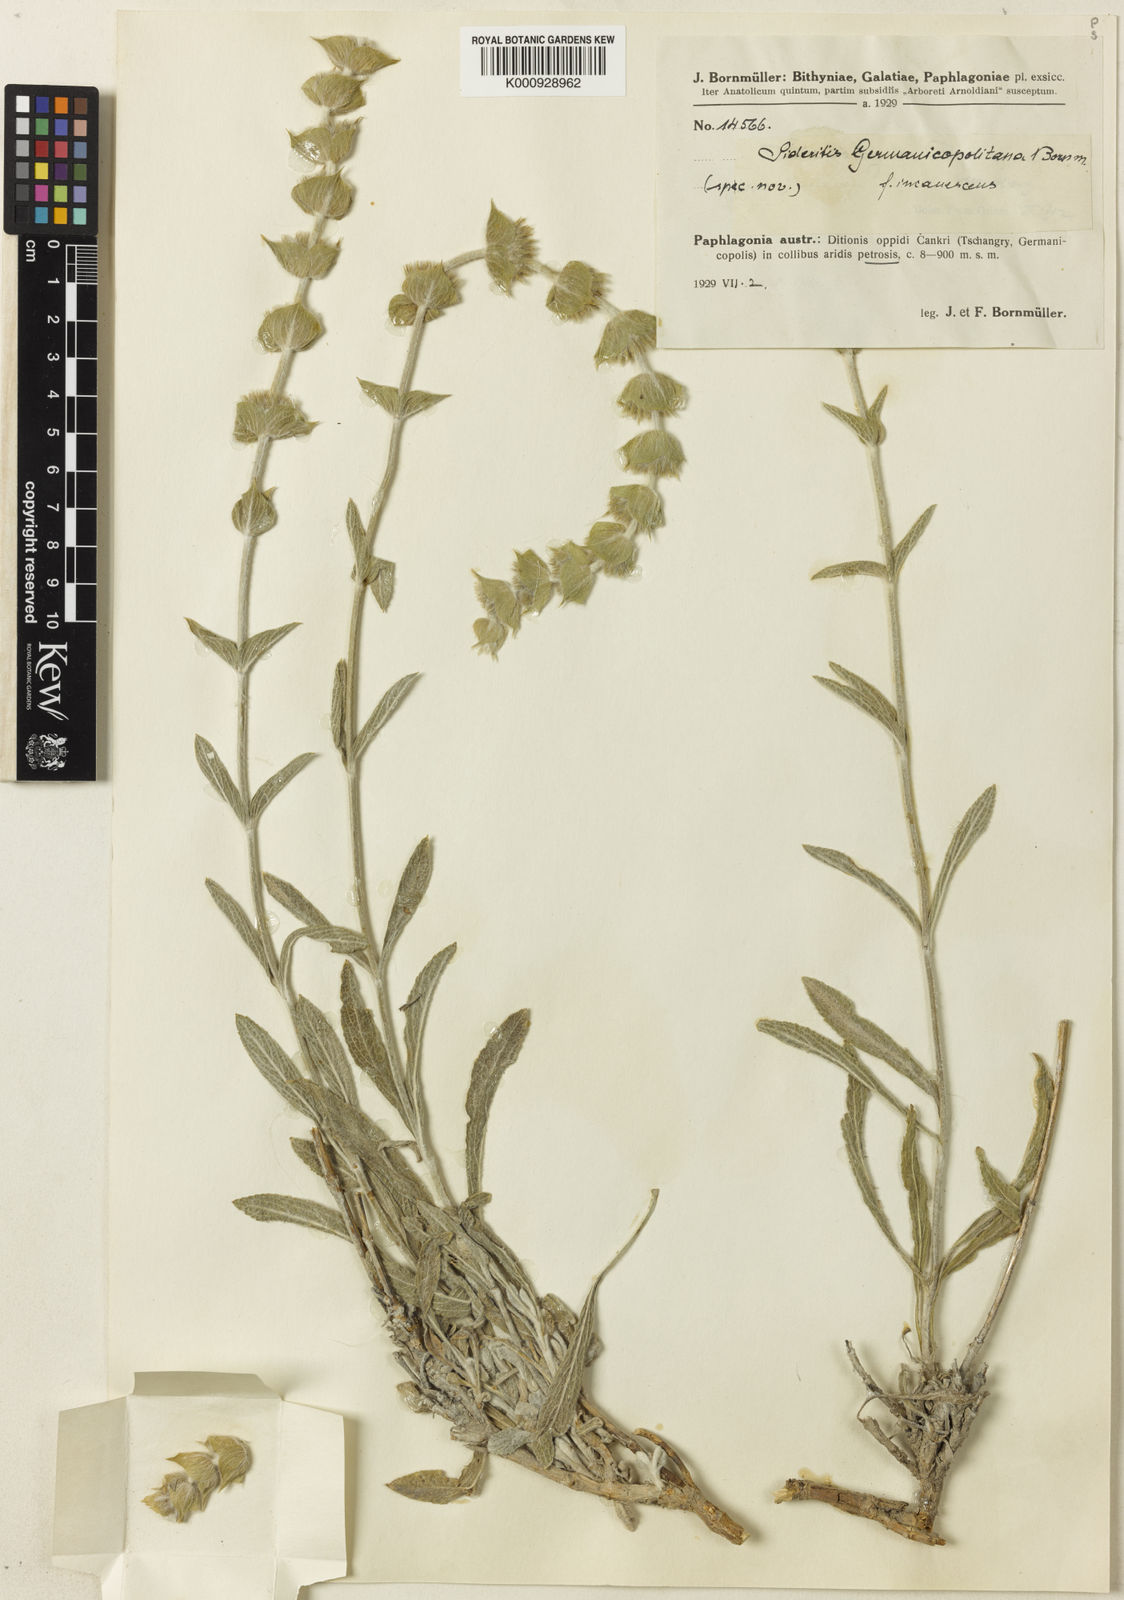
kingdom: Plantae
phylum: Tracheophyta
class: Magnoliopsida
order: Lamiales
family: Lamiaceae
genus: Sideritis
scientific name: Sideritis pisidica
